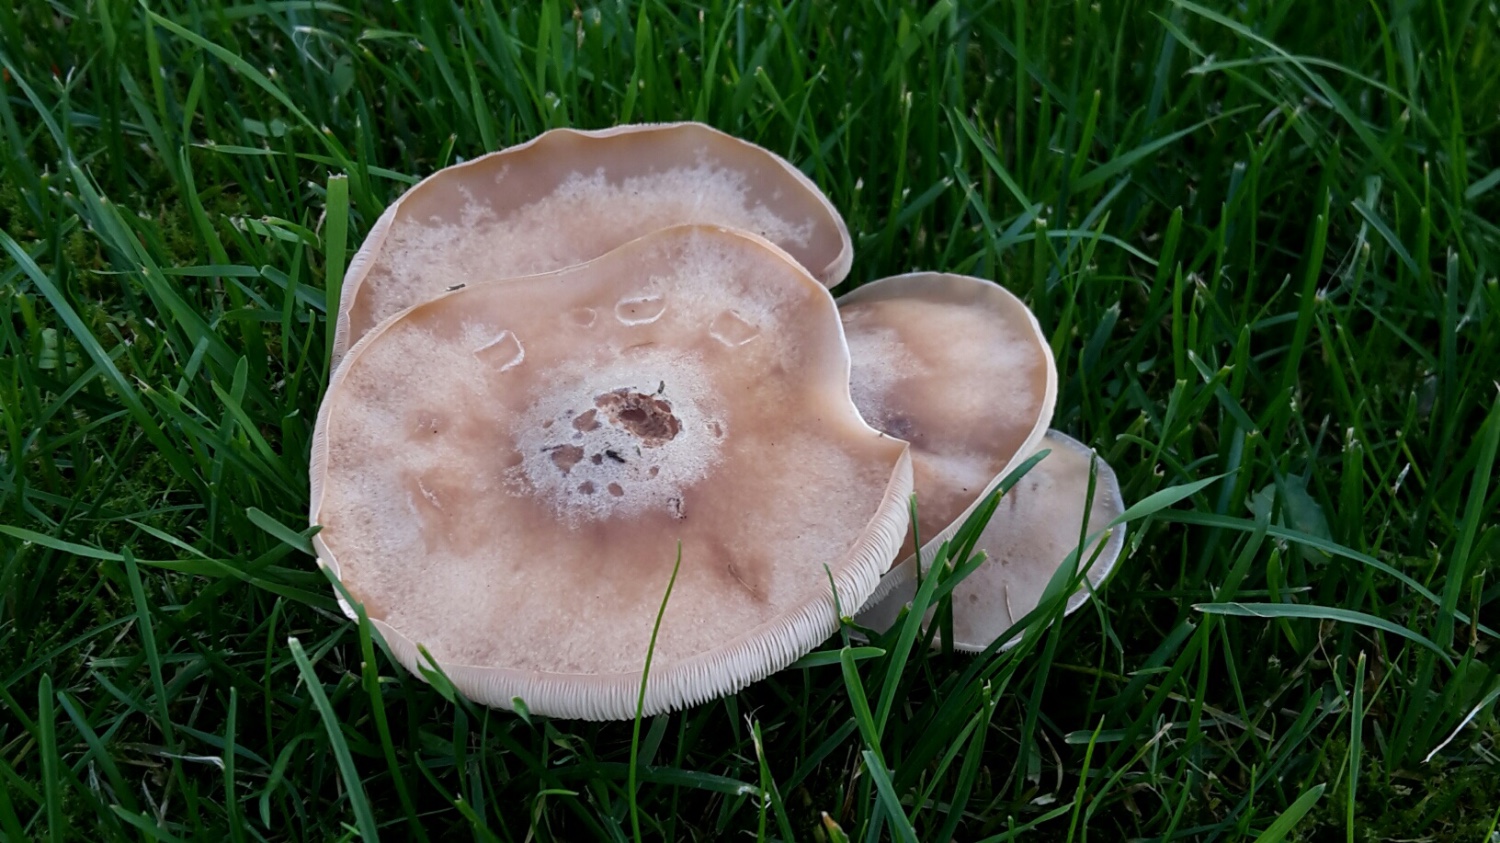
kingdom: Fungi
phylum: Basidiomycota
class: Agaricomycetes
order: Agaricales
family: Tricholomataceae
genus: Lepista
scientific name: Lepista irina
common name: violduftende hekseringshat
